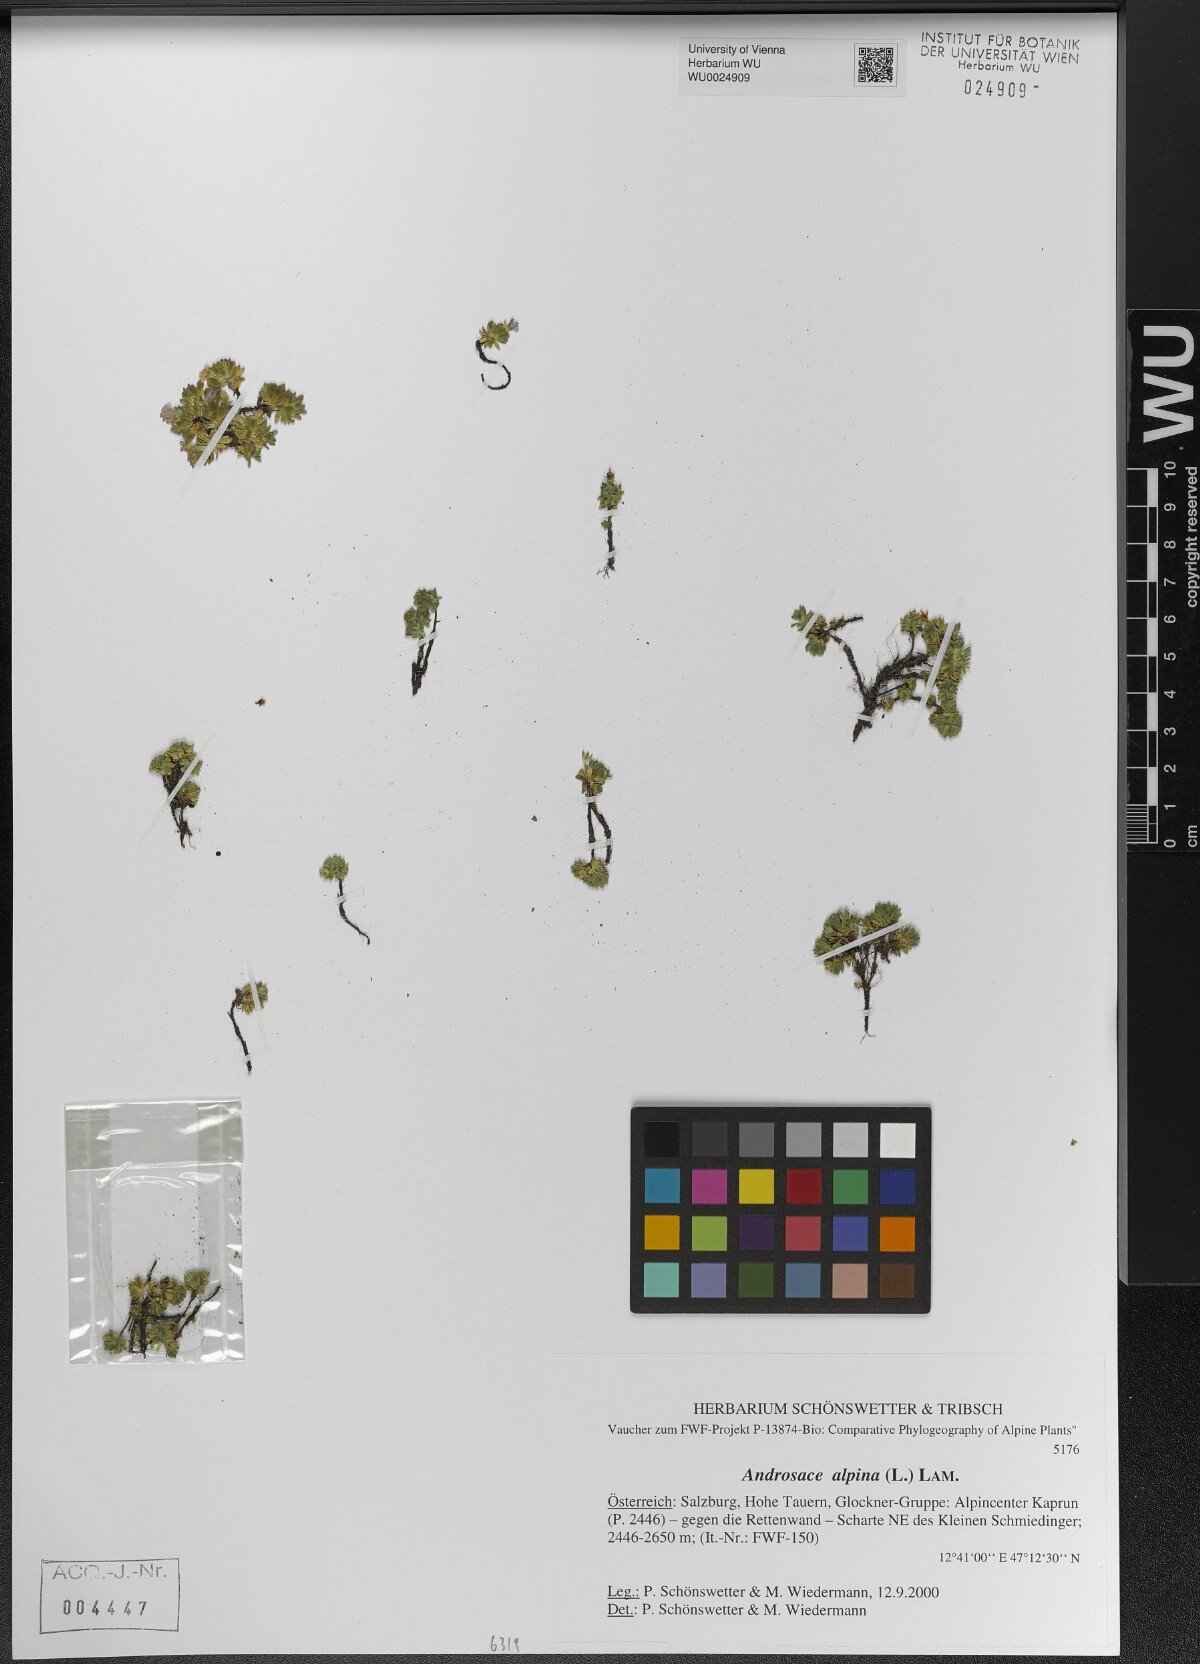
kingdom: Plantae
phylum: Tracheophyta
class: Magnoliopsida
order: Ericales
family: Primulaceae
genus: Androsace
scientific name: Androsace alpina
